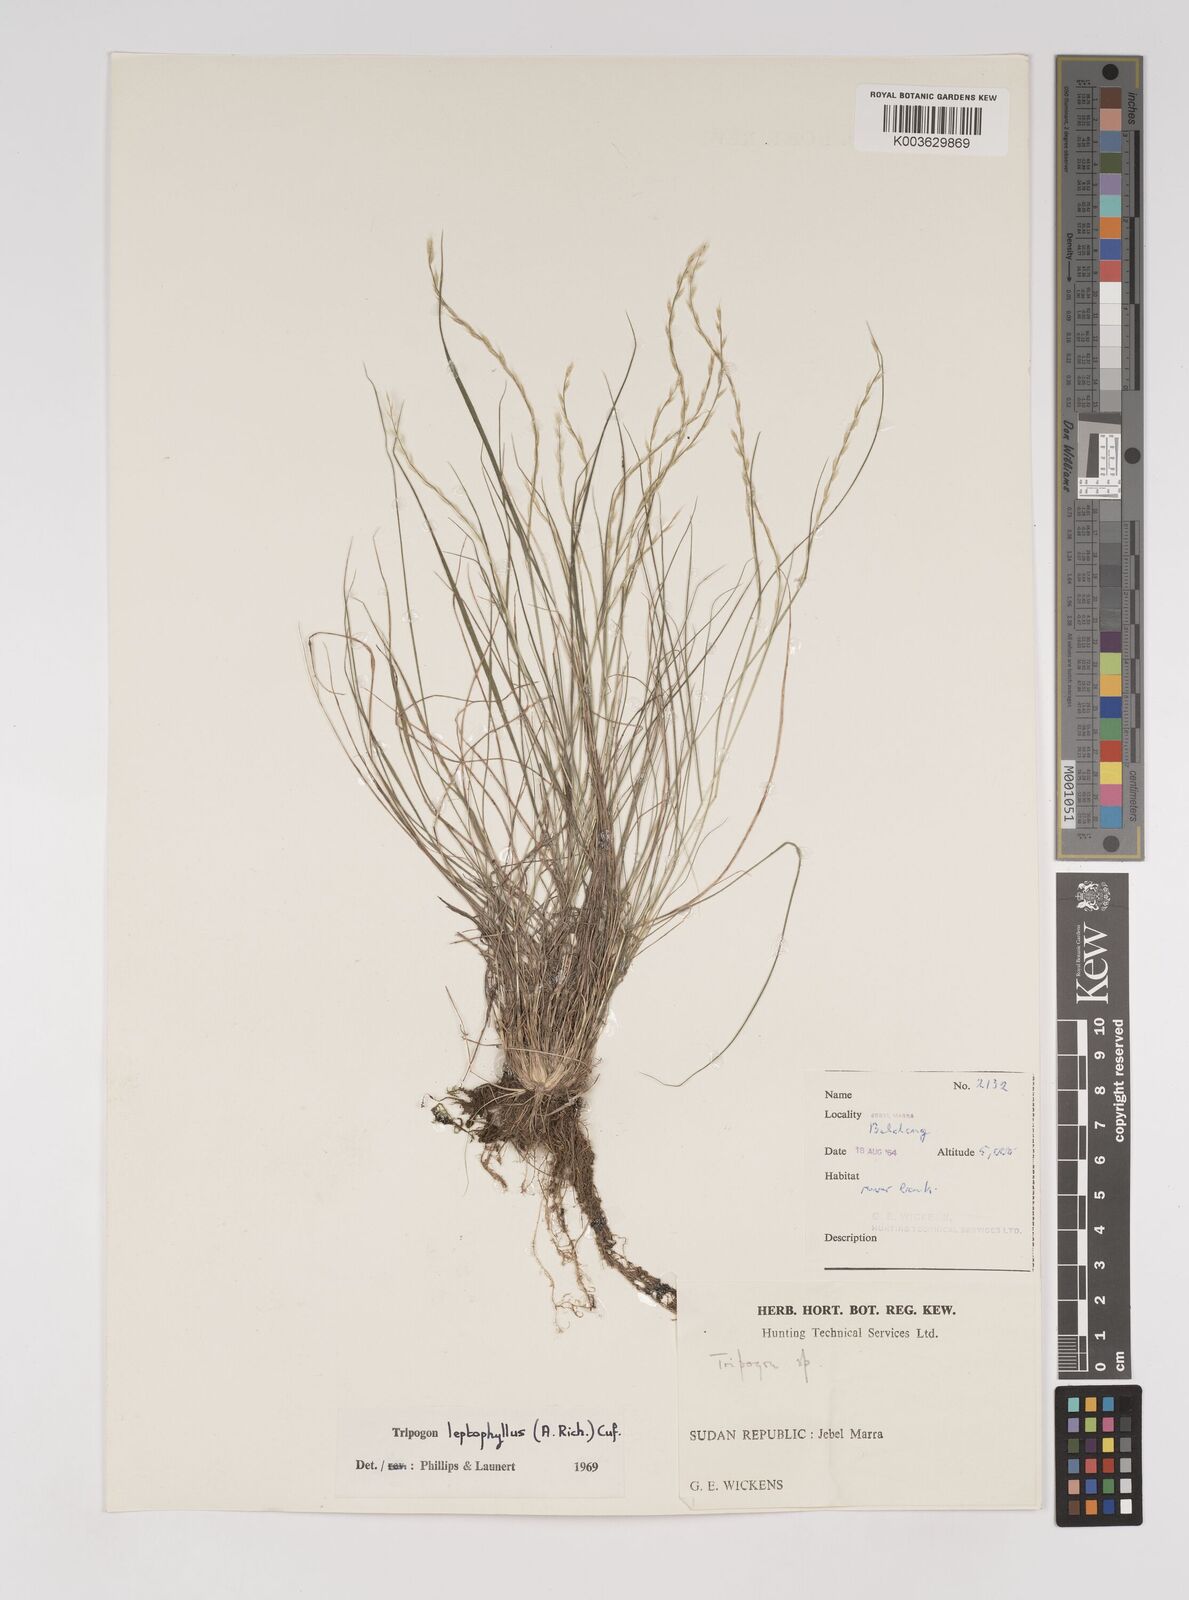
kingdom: Plantae
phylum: Tracheophyta
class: Liliopsida
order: Poales
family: Poaceae
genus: Tripogon
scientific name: Tripogon leptophyllus
